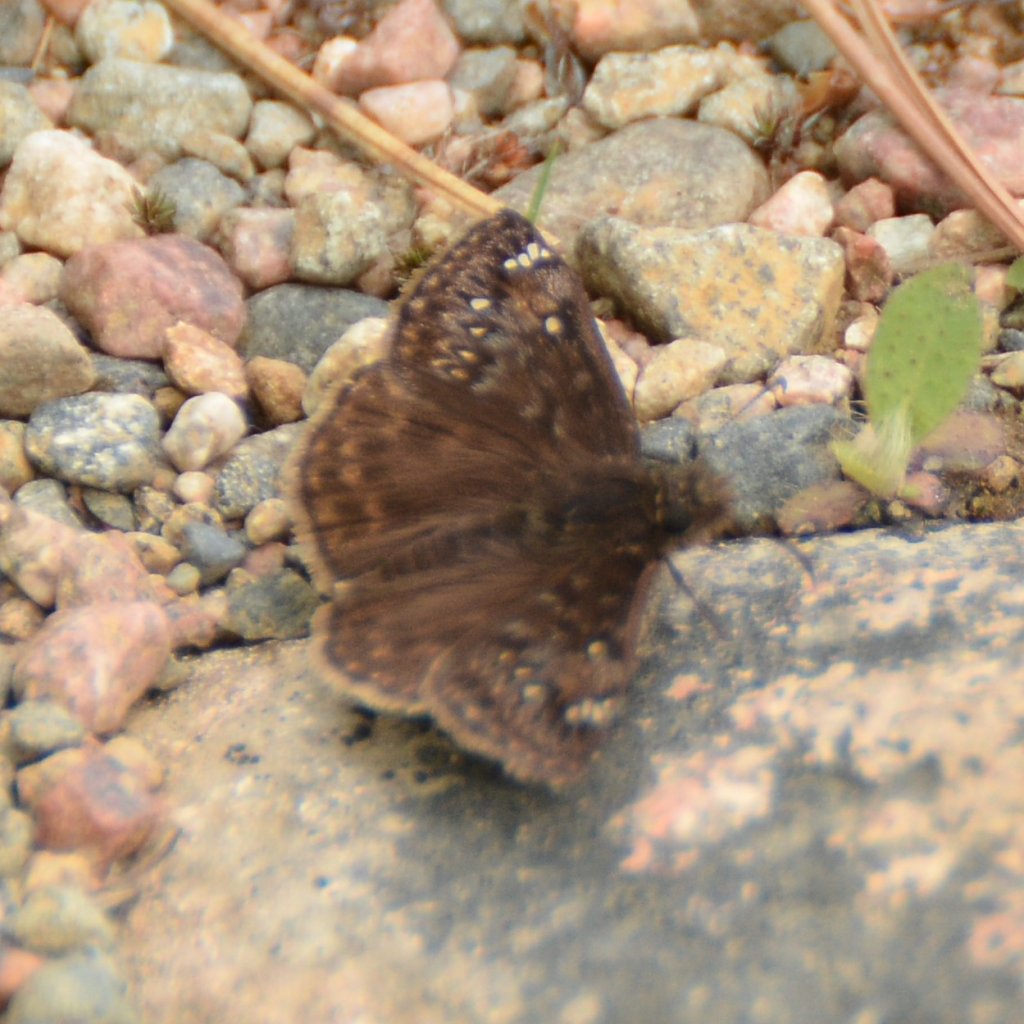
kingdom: Animalia
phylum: Arthropoda
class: Insecta
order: Lepidoptera
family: Hesperiidae
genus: Gesta
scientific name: Gesta
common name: Juvenal's Duskywing
